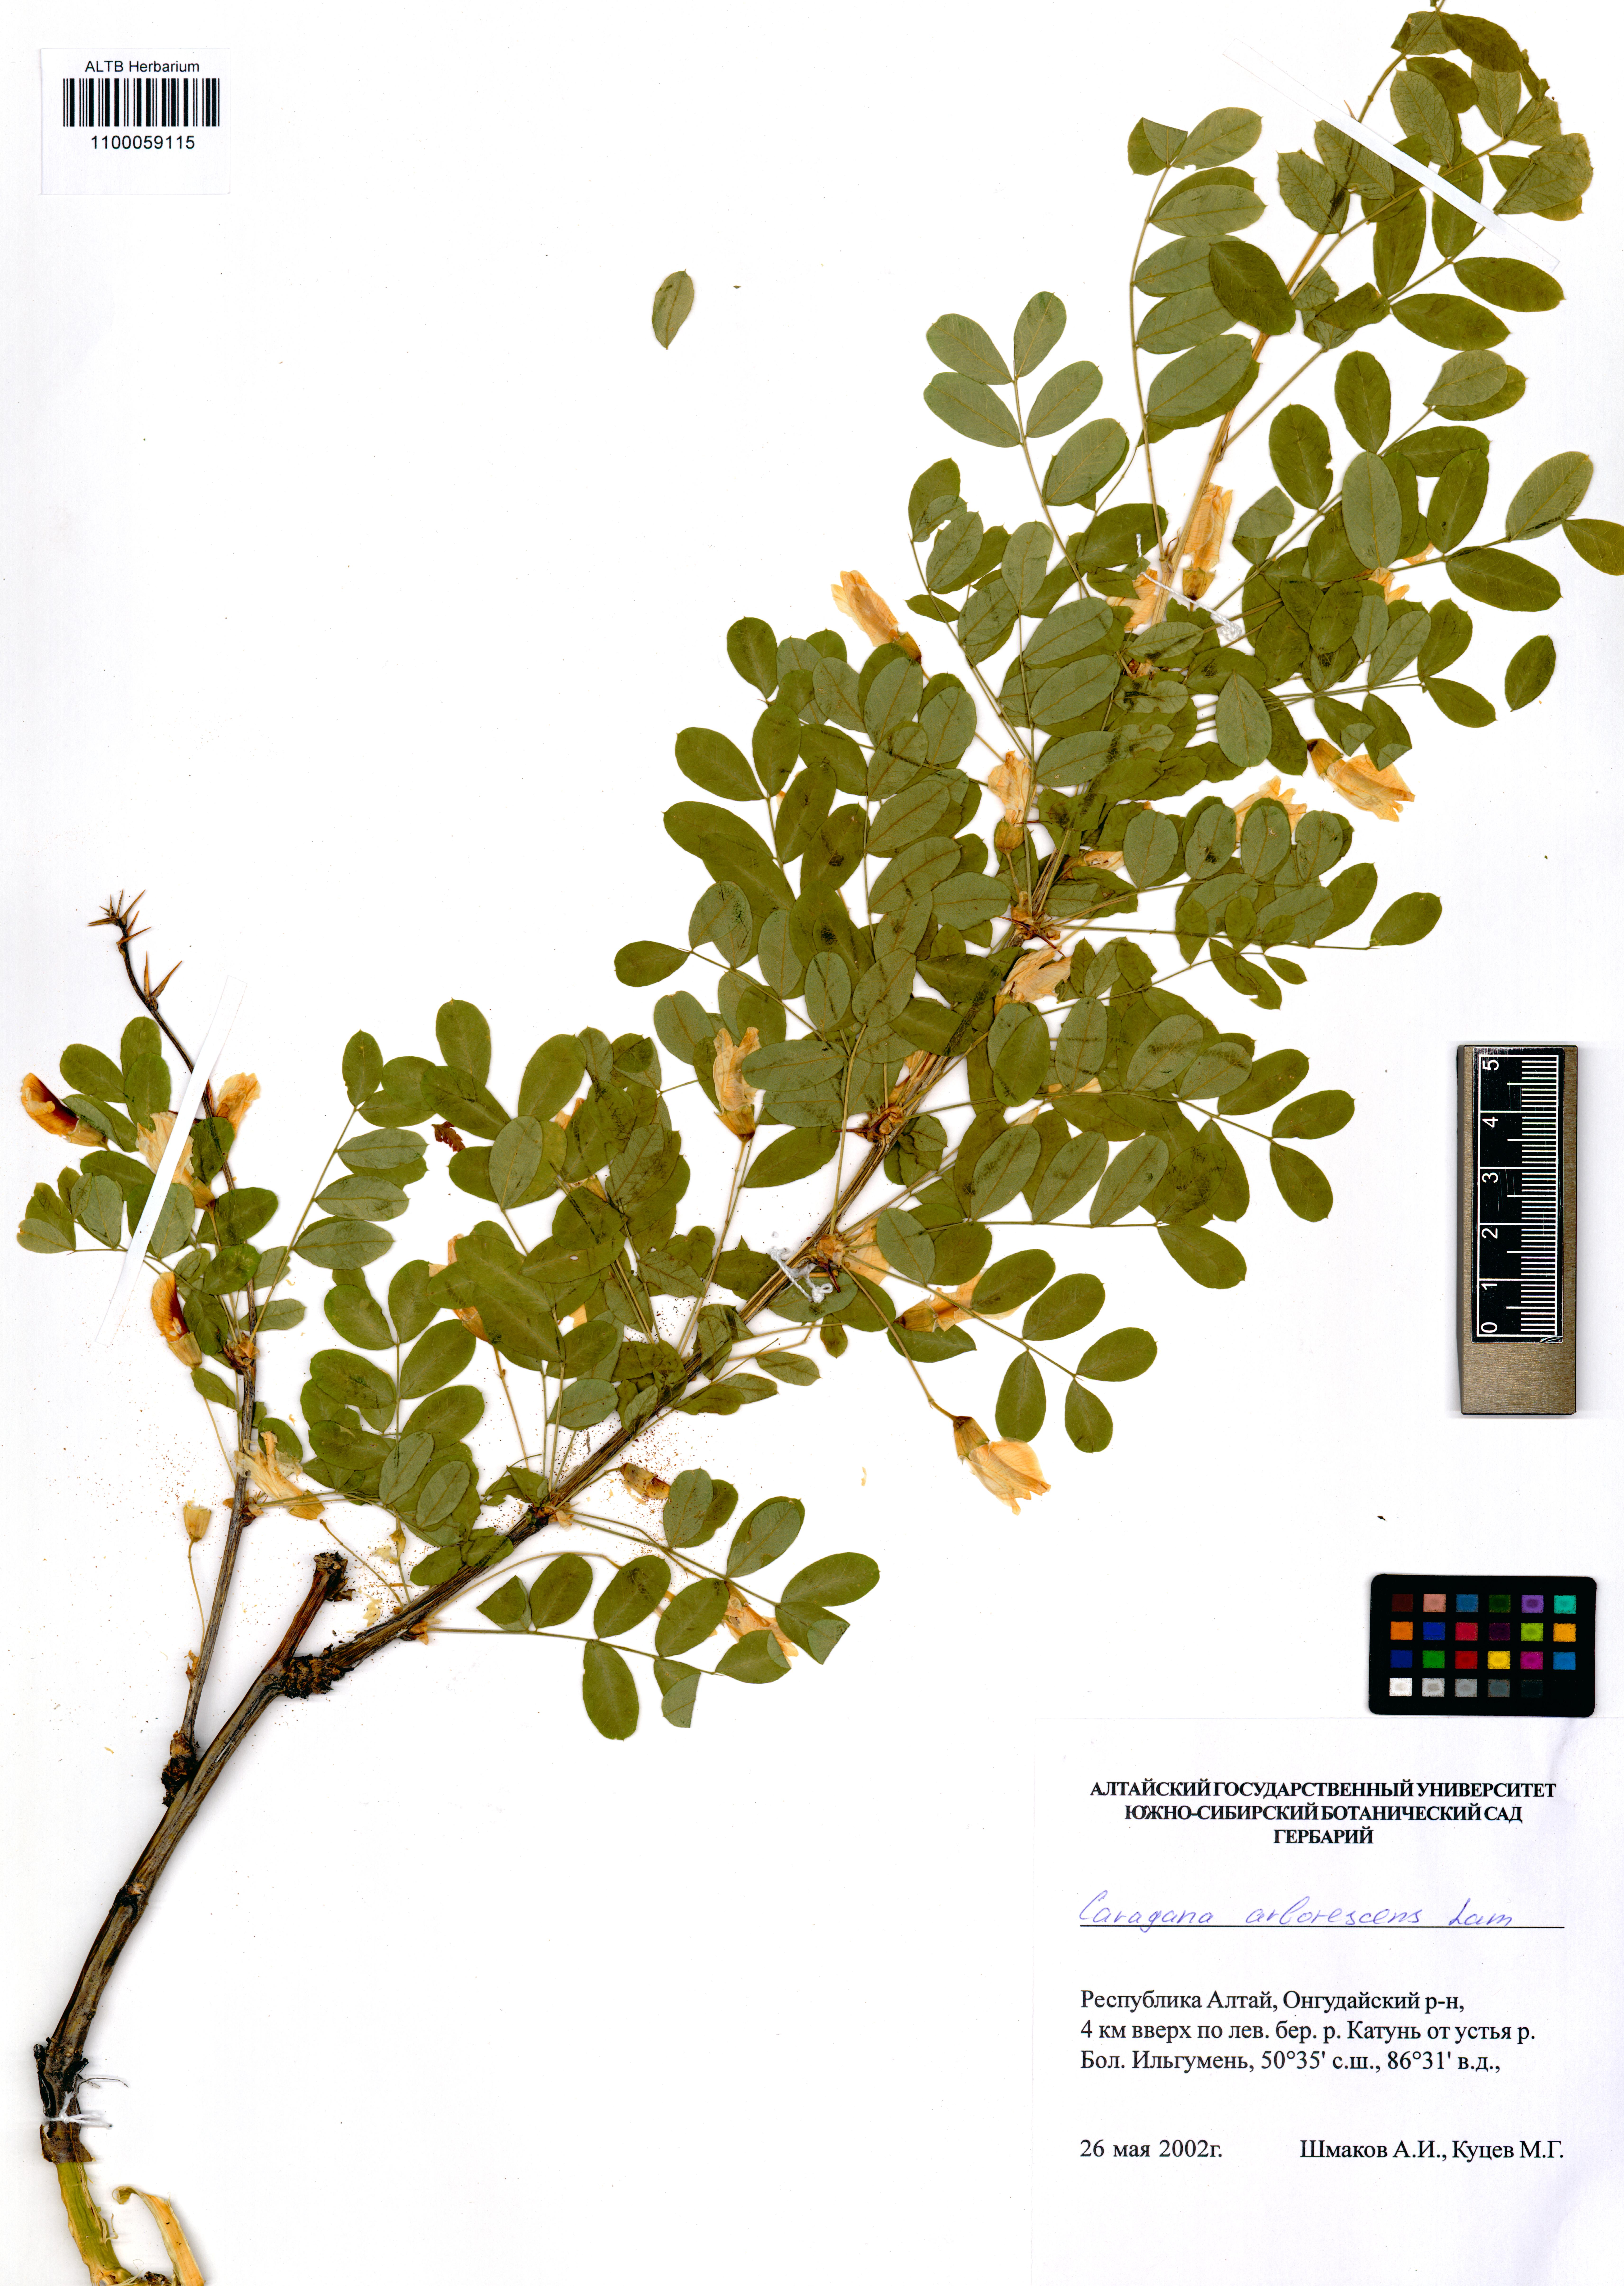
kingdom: Plantae
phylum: Tracheophyta
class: Magnoliopsida
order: Fabales
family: Fabaceae
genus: Caragana
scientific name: Caragana arborescens
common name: Siberian peashrub
